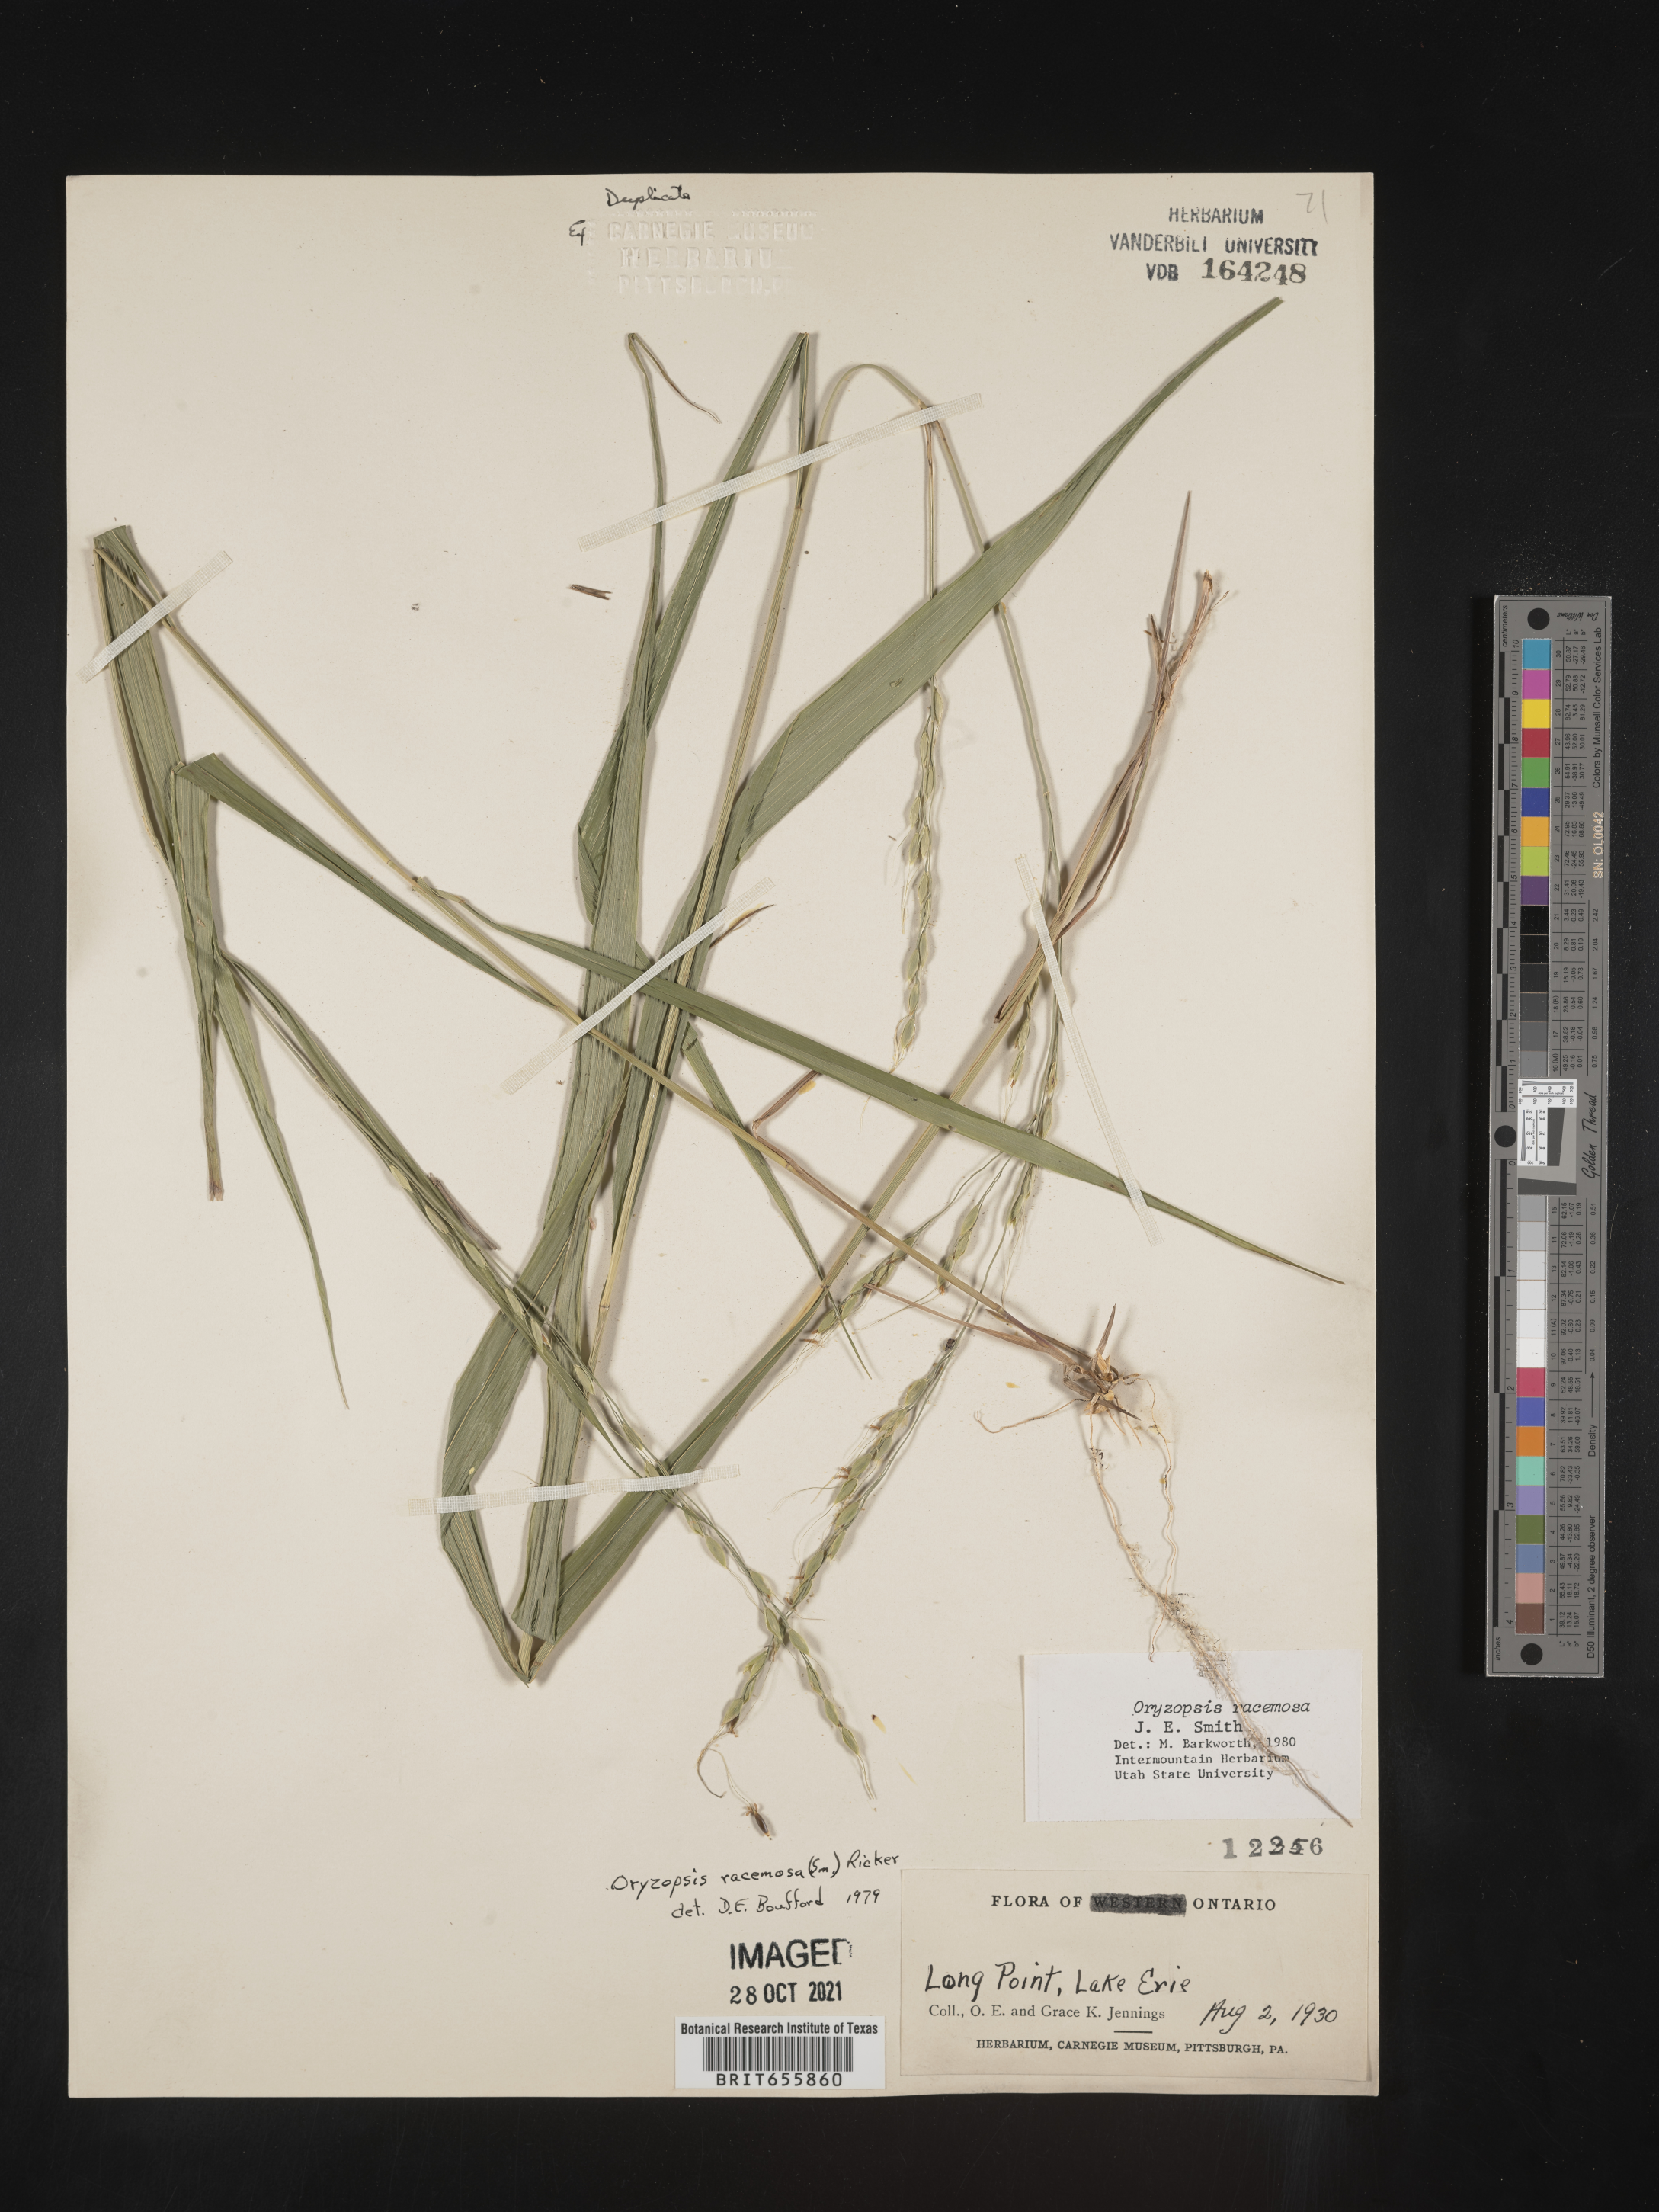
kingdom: Plantae
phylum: Tracheophyta
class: Liliopsida
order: Poales
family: Poaceae
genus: Oryzopsis
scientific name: Oryzopsis
